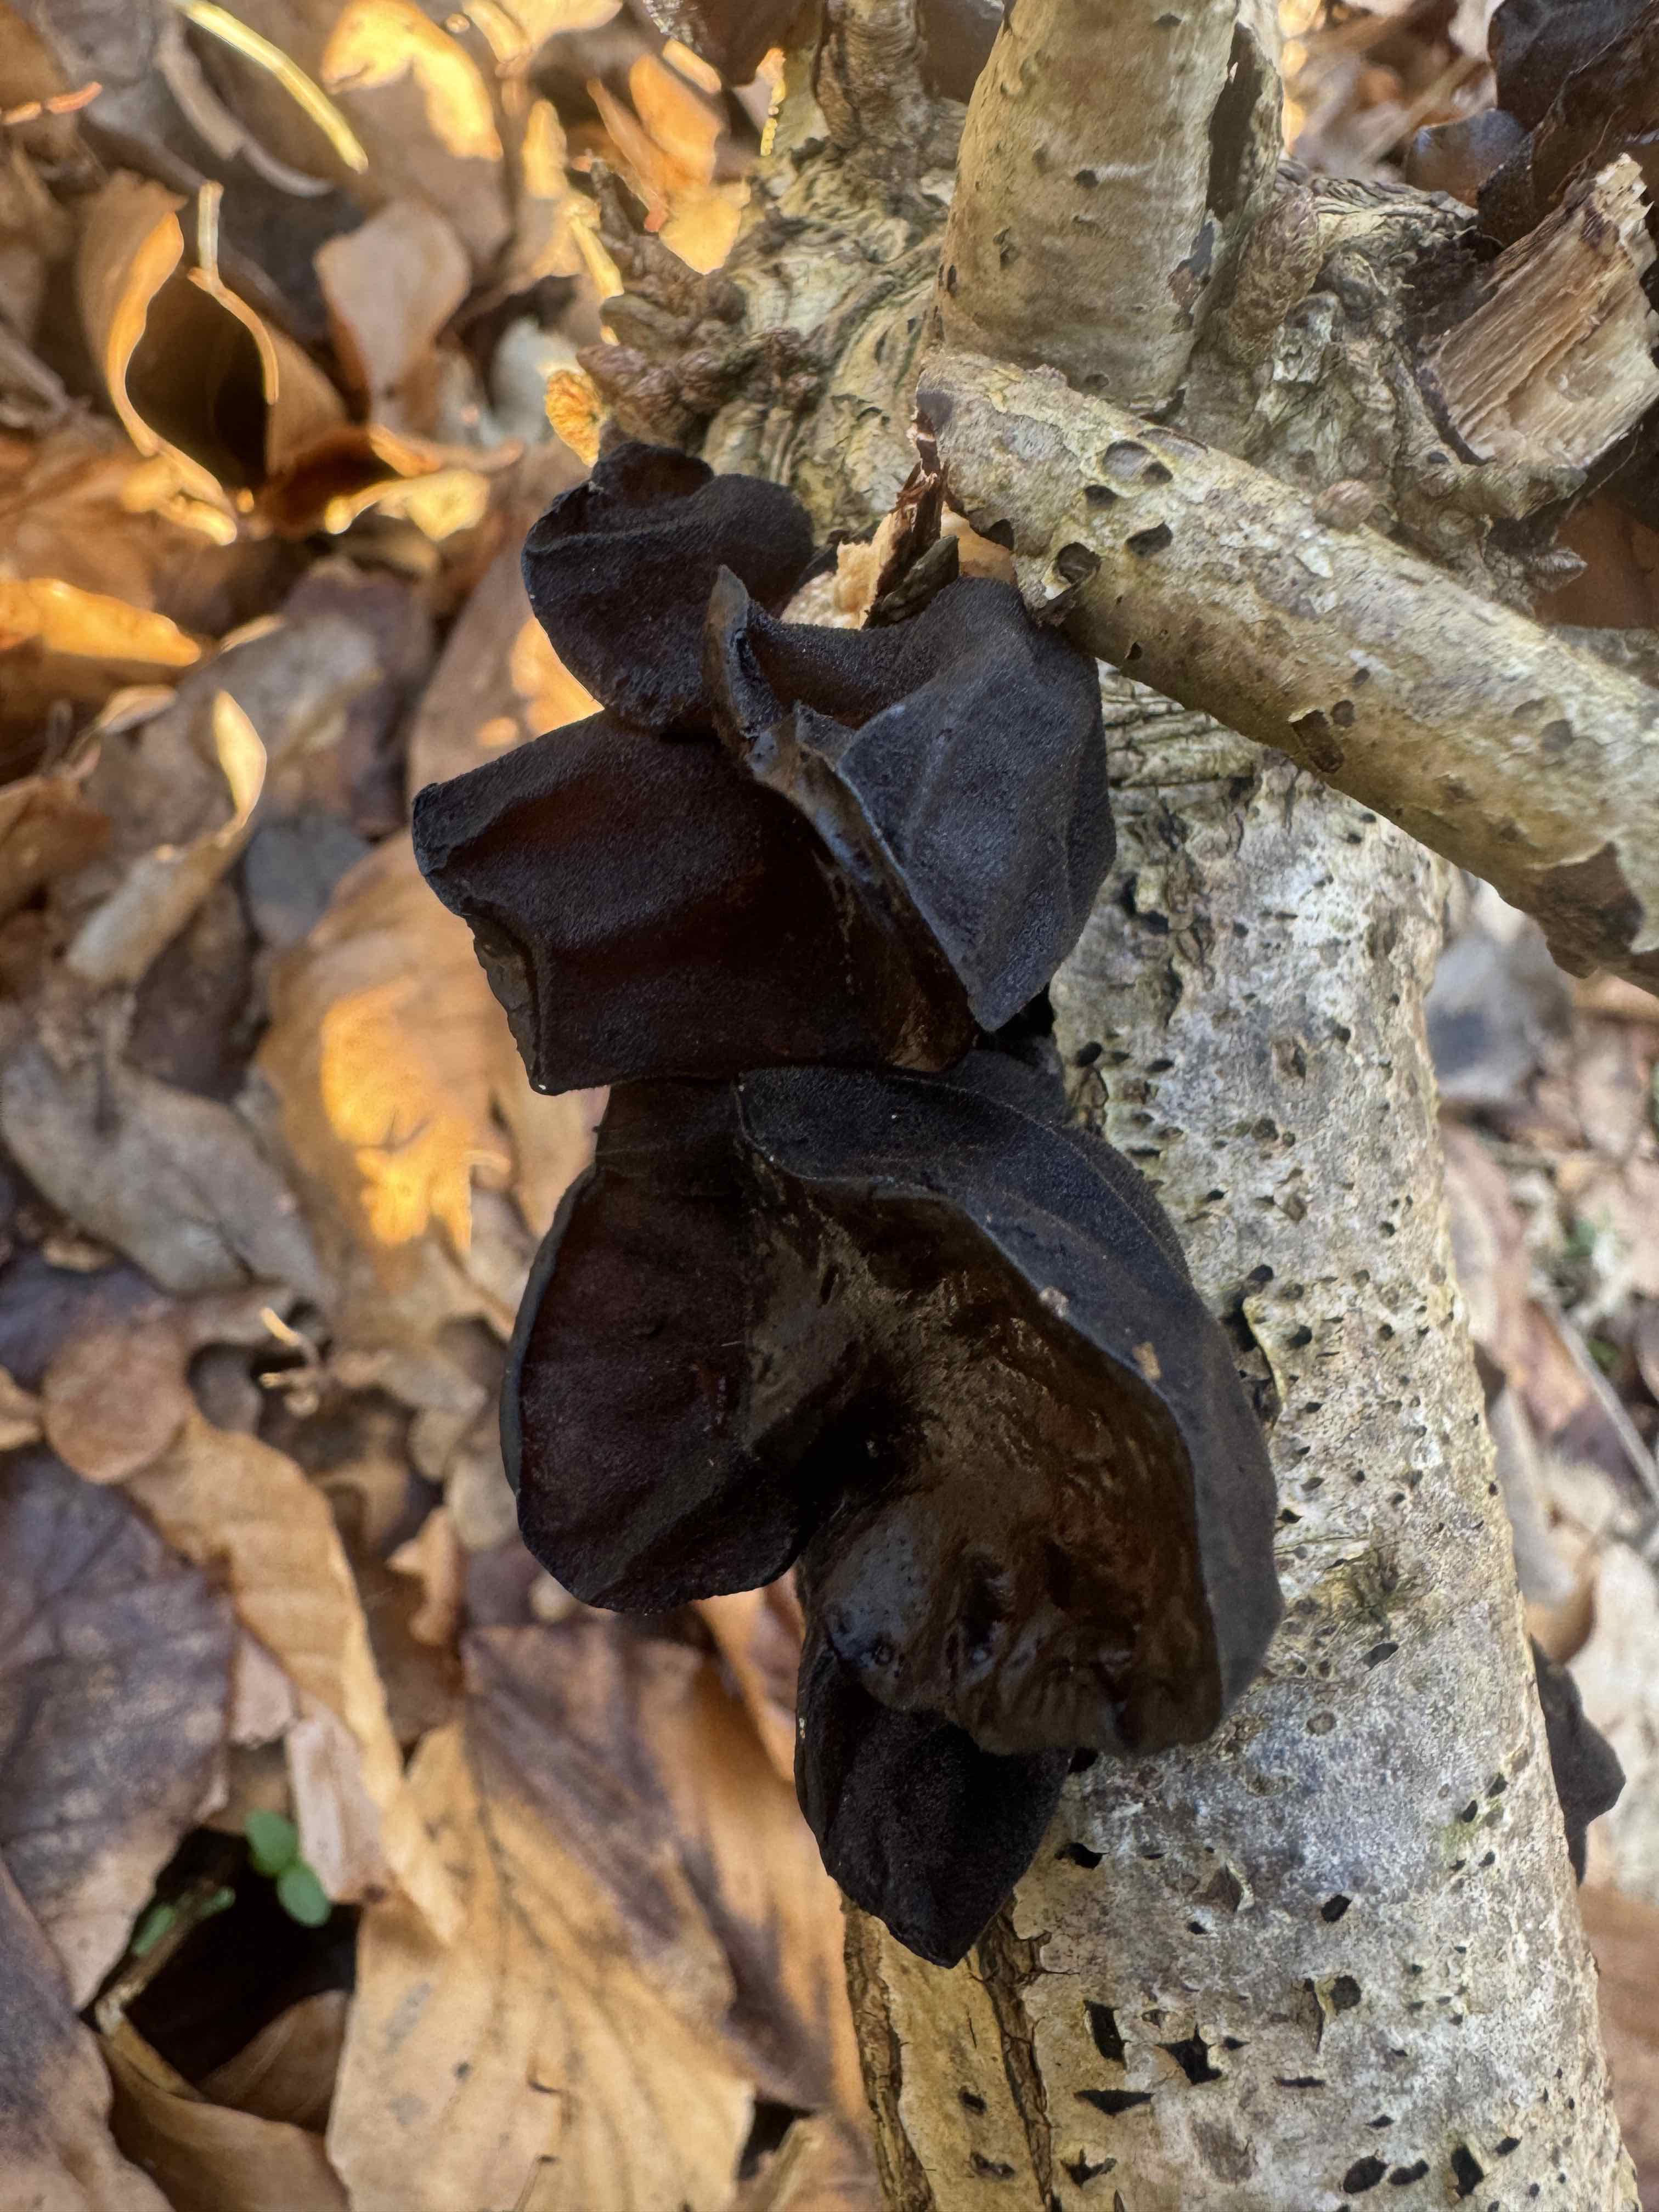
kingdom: Fungi
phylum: Basidiomycota
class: Agaricomycetes
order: Auriculariales
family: Auriculariaceae
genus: Exidia
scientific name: Exidia glandulosa
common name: ege-bævretop
